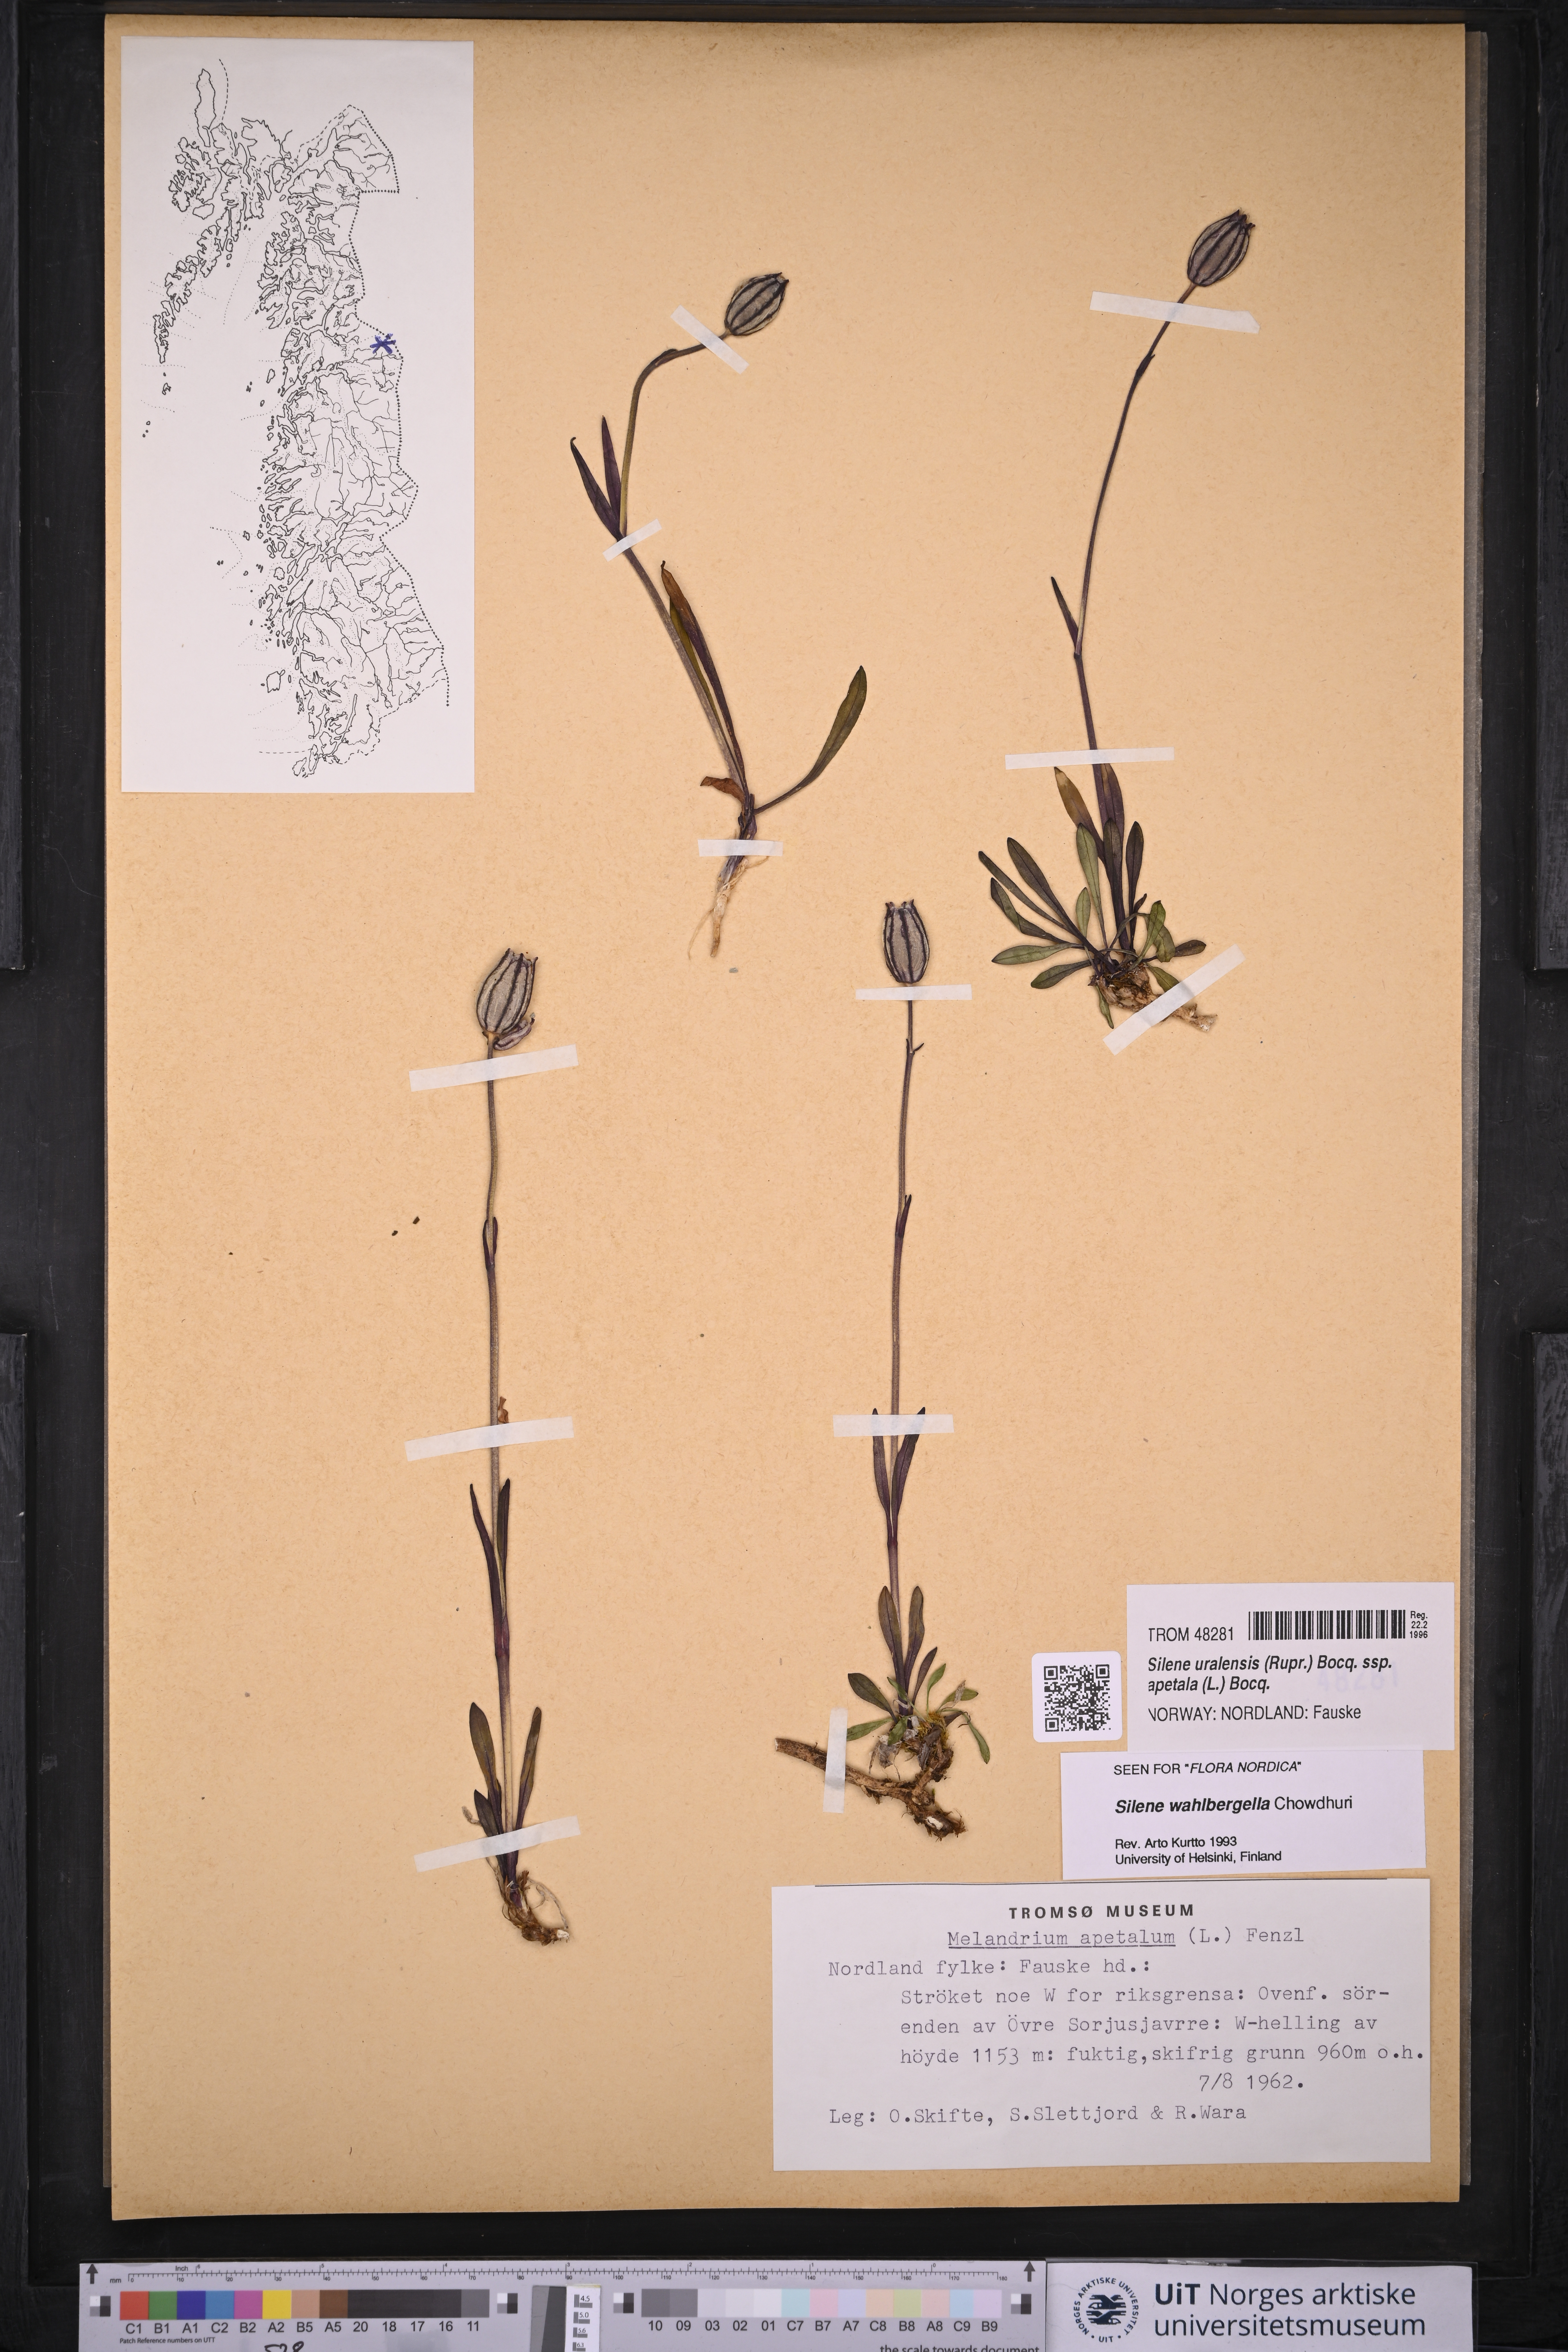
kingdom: Plantae
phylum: Tracheophyta
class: Magnoliopsida
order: Caryophyllales
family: Caryophyllaceae
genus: Silene
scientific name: Silene wahlbergella
